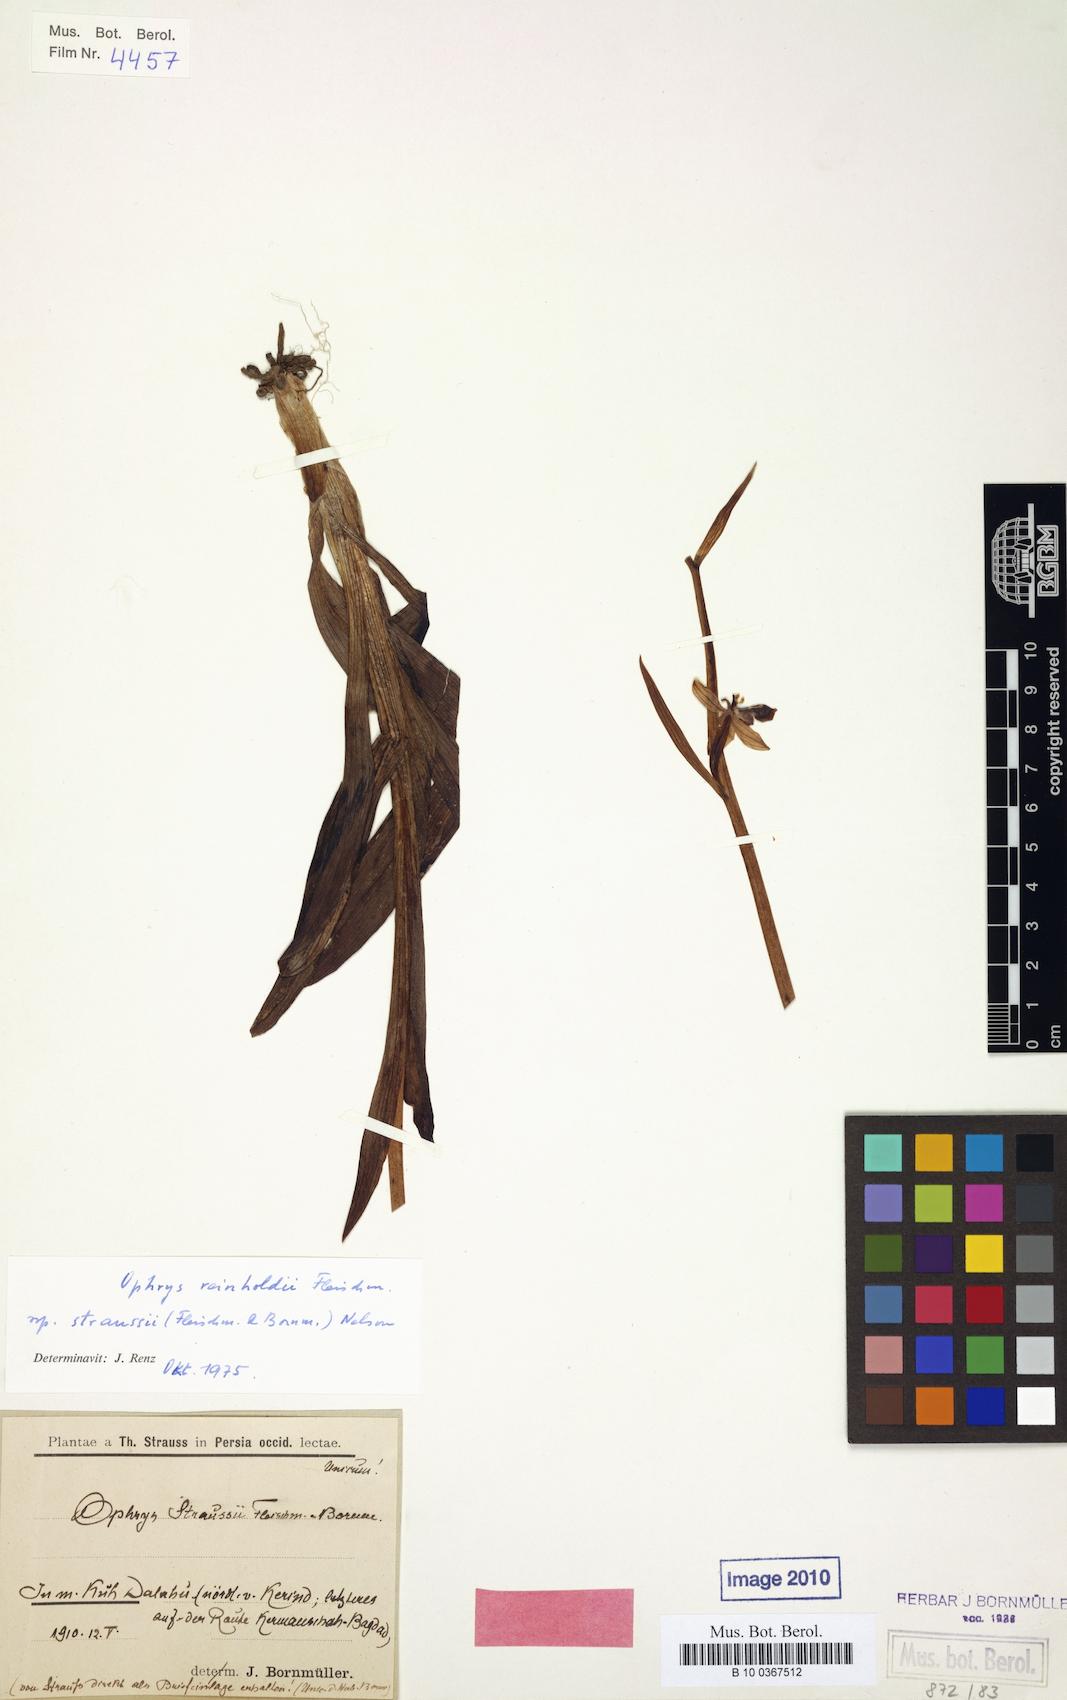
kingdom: Plantae
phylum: Tracheophyta
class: Liliopsida
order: Asparagales
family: Orchidaceae
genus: Ophrys
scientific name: Ophrys reinholdii
